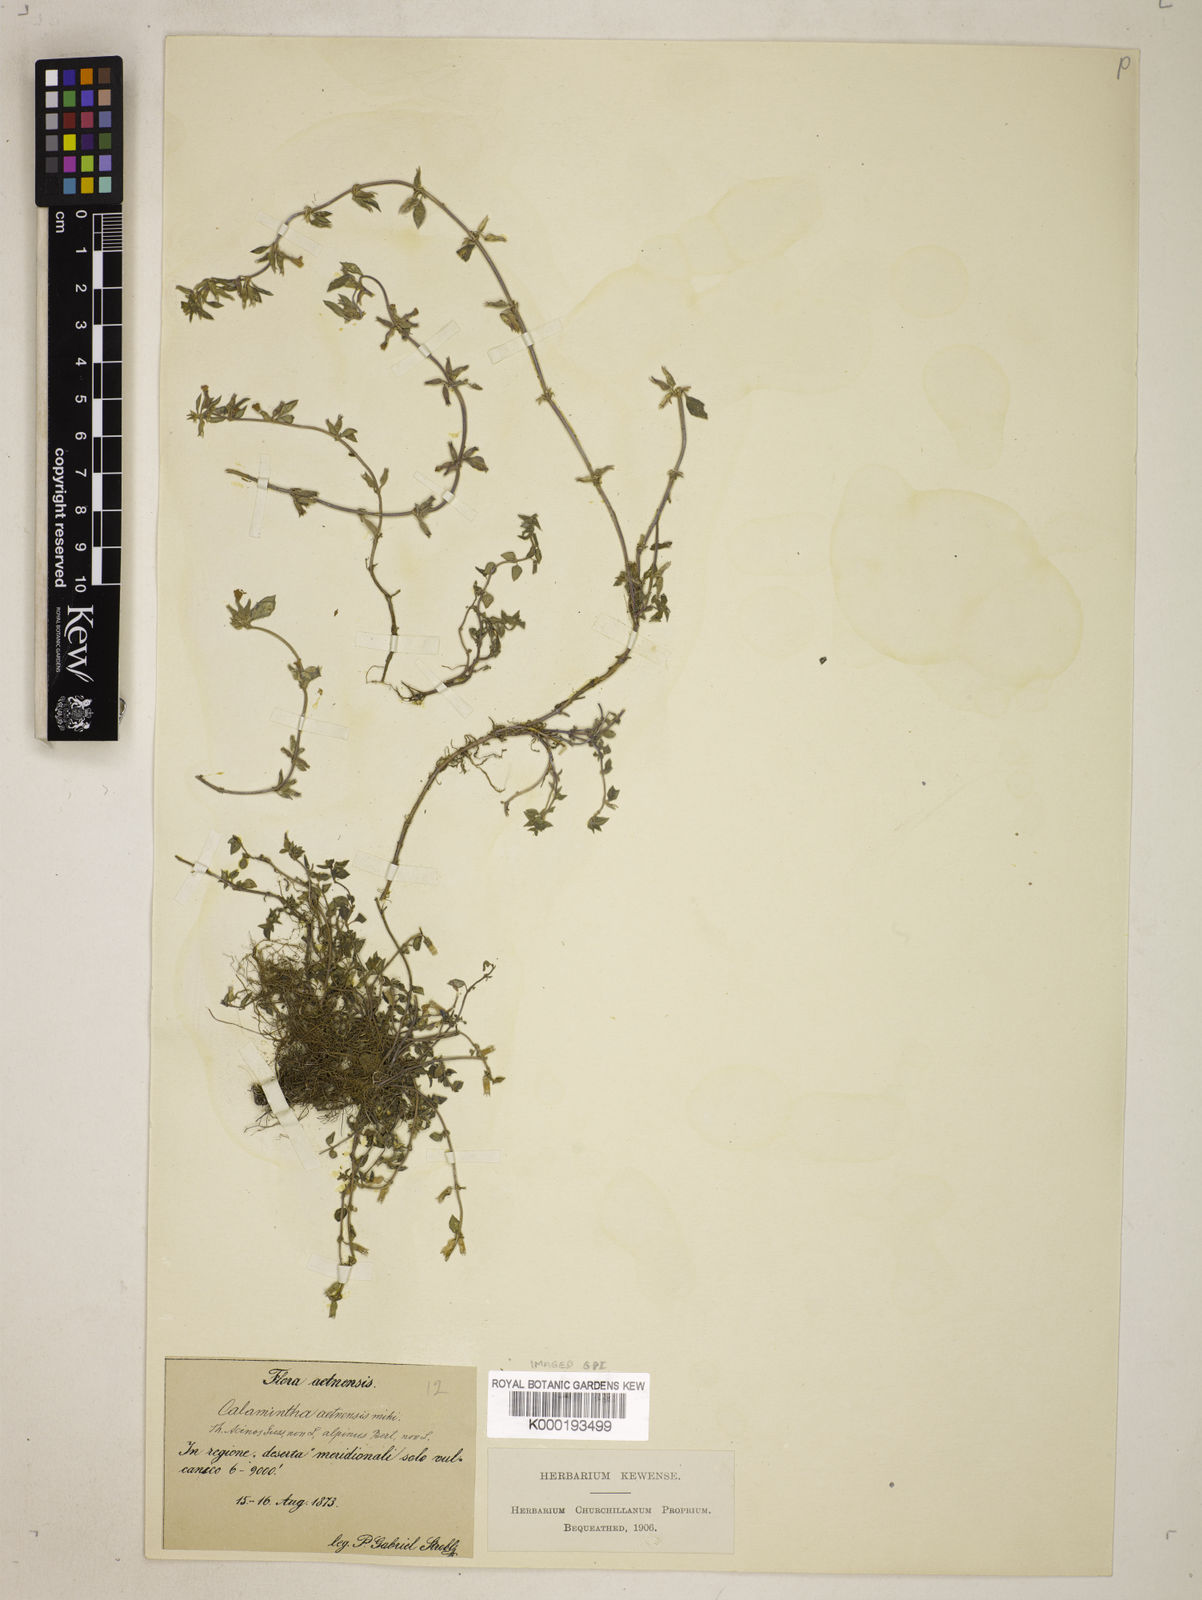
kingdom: Plantae
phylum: Tracheophyta
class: Magnoliopsida
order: Lamiales
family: Lamiaceae
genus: Clinopodium
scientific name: Clinopodium alpinum
